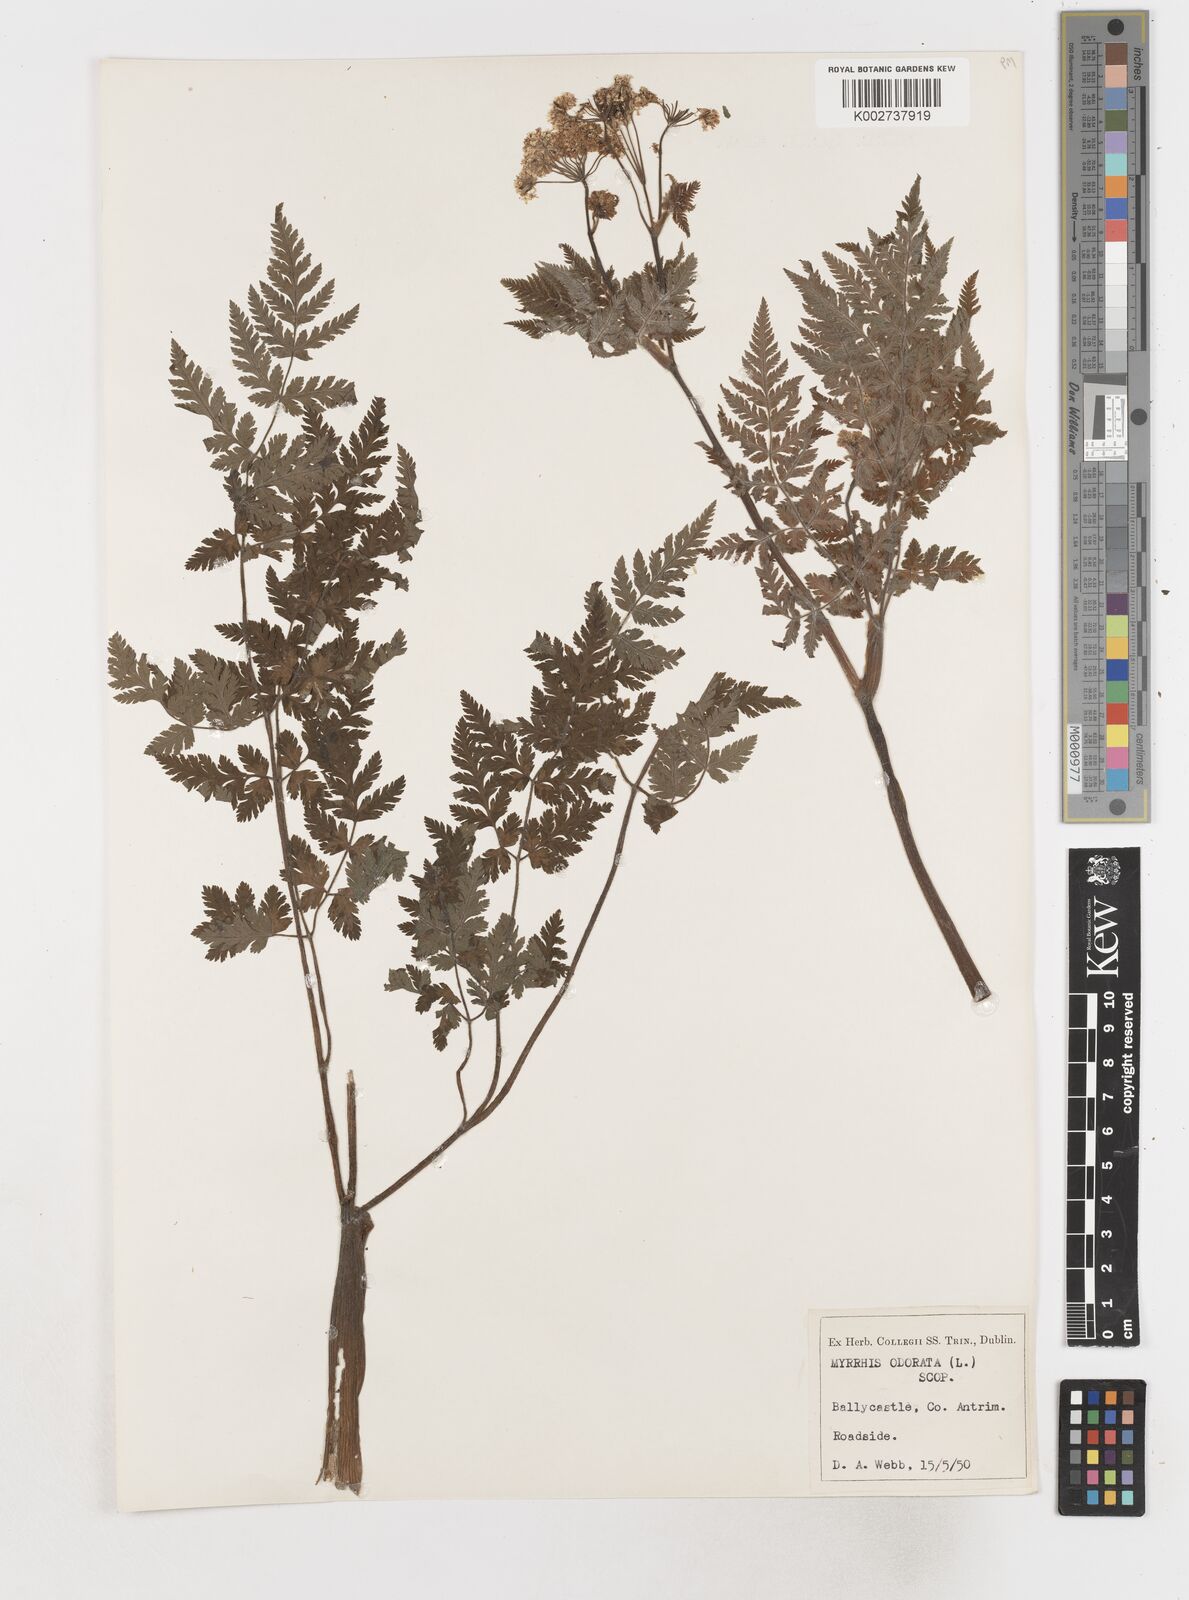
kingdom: Plantae
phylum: Tracheophyta
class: Magnoliopsida
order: Apiales
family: Apiaceae
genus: Myrrhis
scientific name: Myrrhis odorata
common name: Sweet cicely
